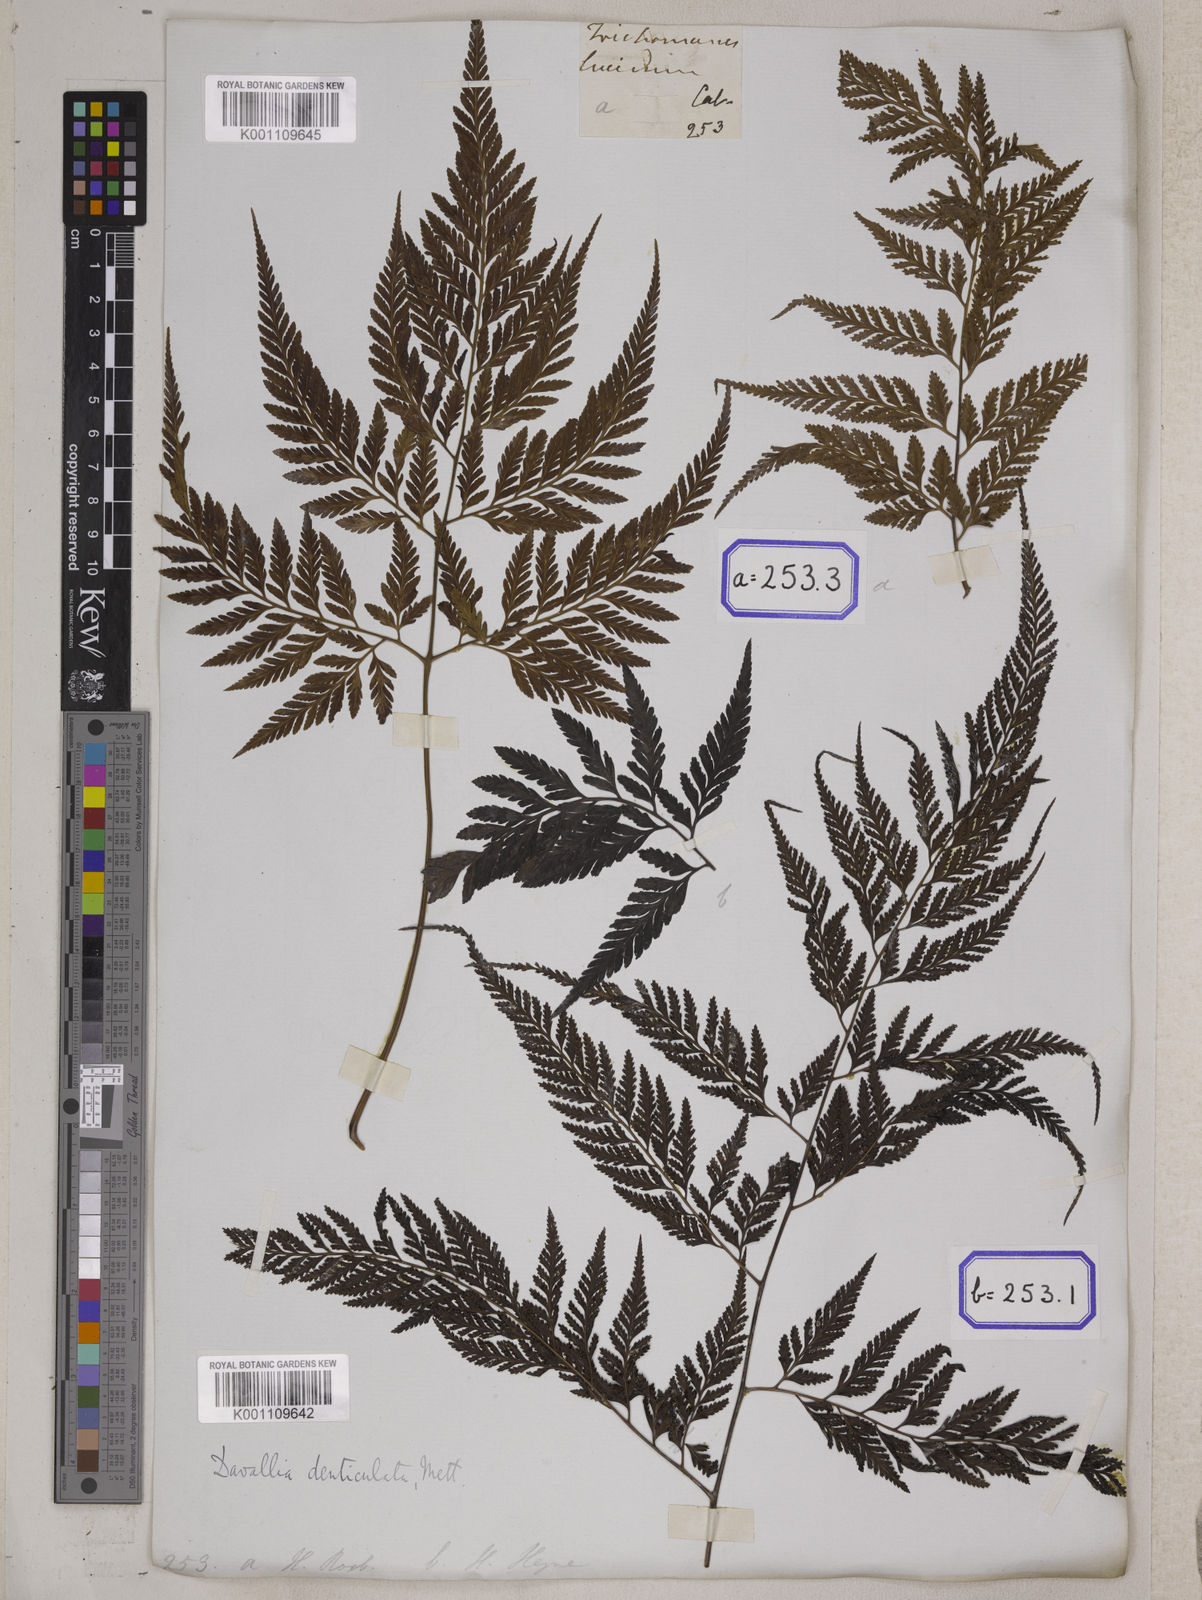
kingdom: Plantae
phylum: Tracheophyta
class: Polypodiopsida
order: Polypodiales
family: Davalliaceae
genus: Davallia
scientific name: Davallia
